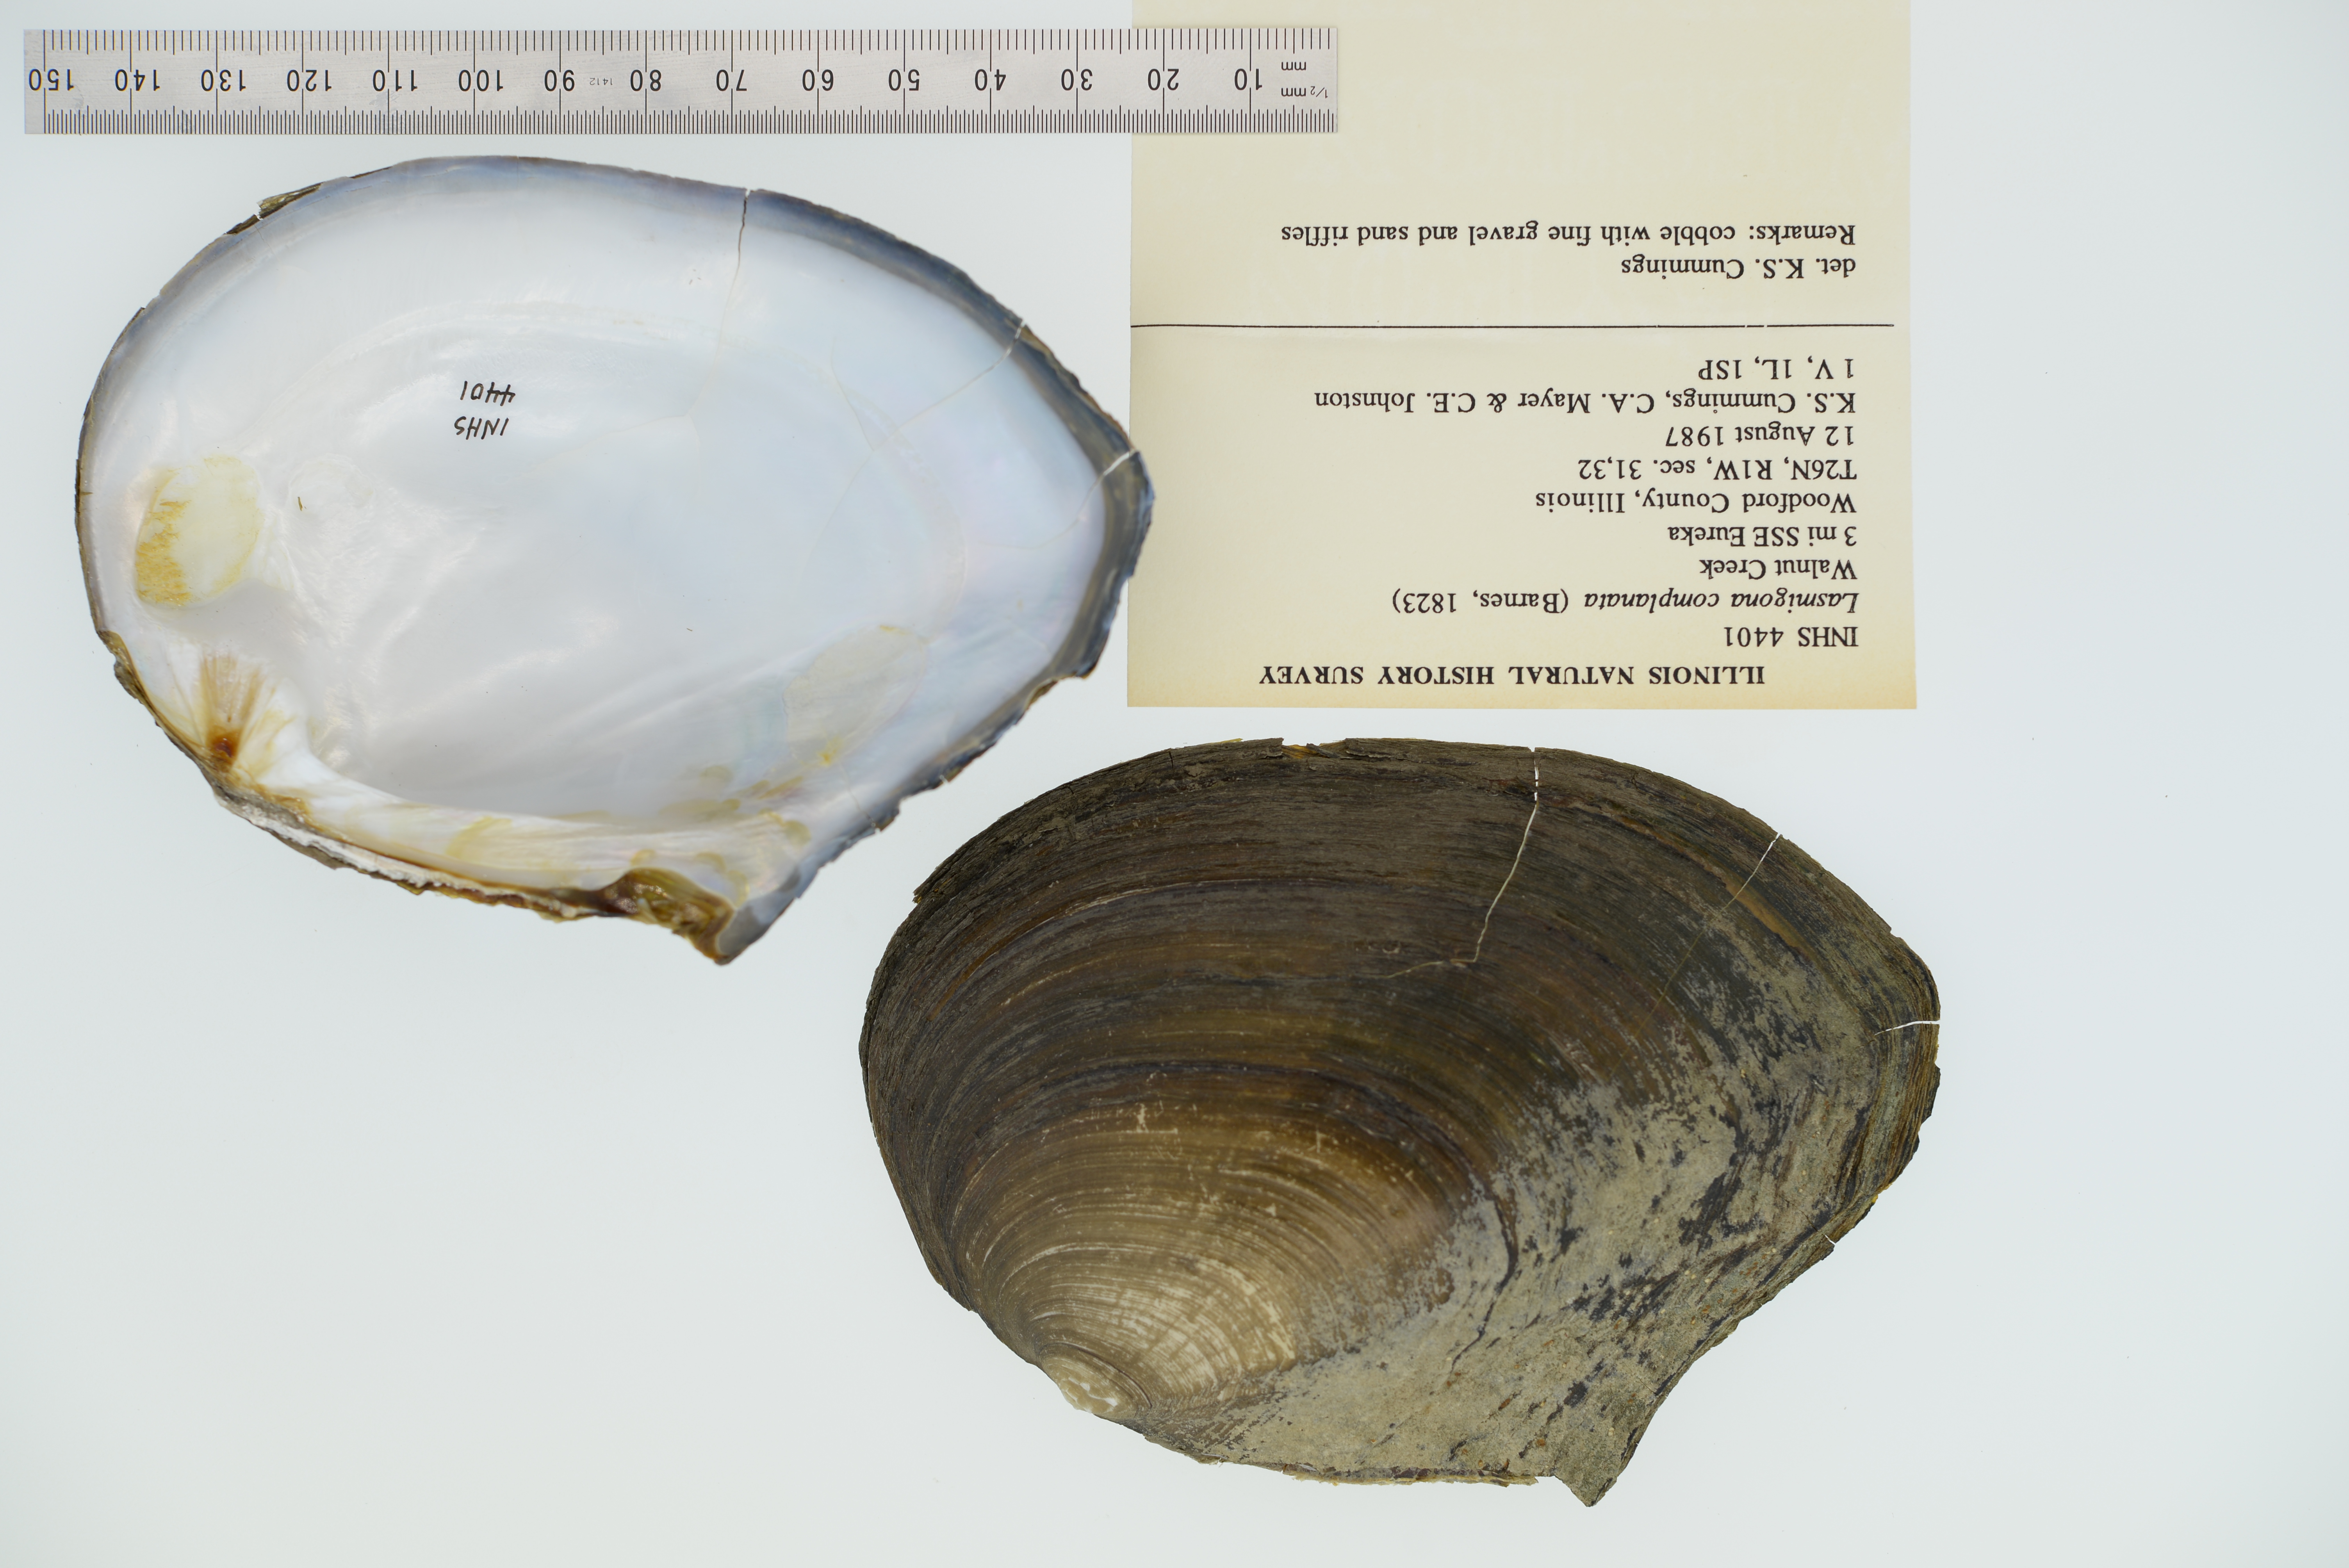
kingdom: Animalia
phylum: Mollusca
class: Bivalvia
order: Unionida
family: Unionidae
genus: Lasmigona
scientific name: Lasmigona complanata
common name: White heelsplitter
